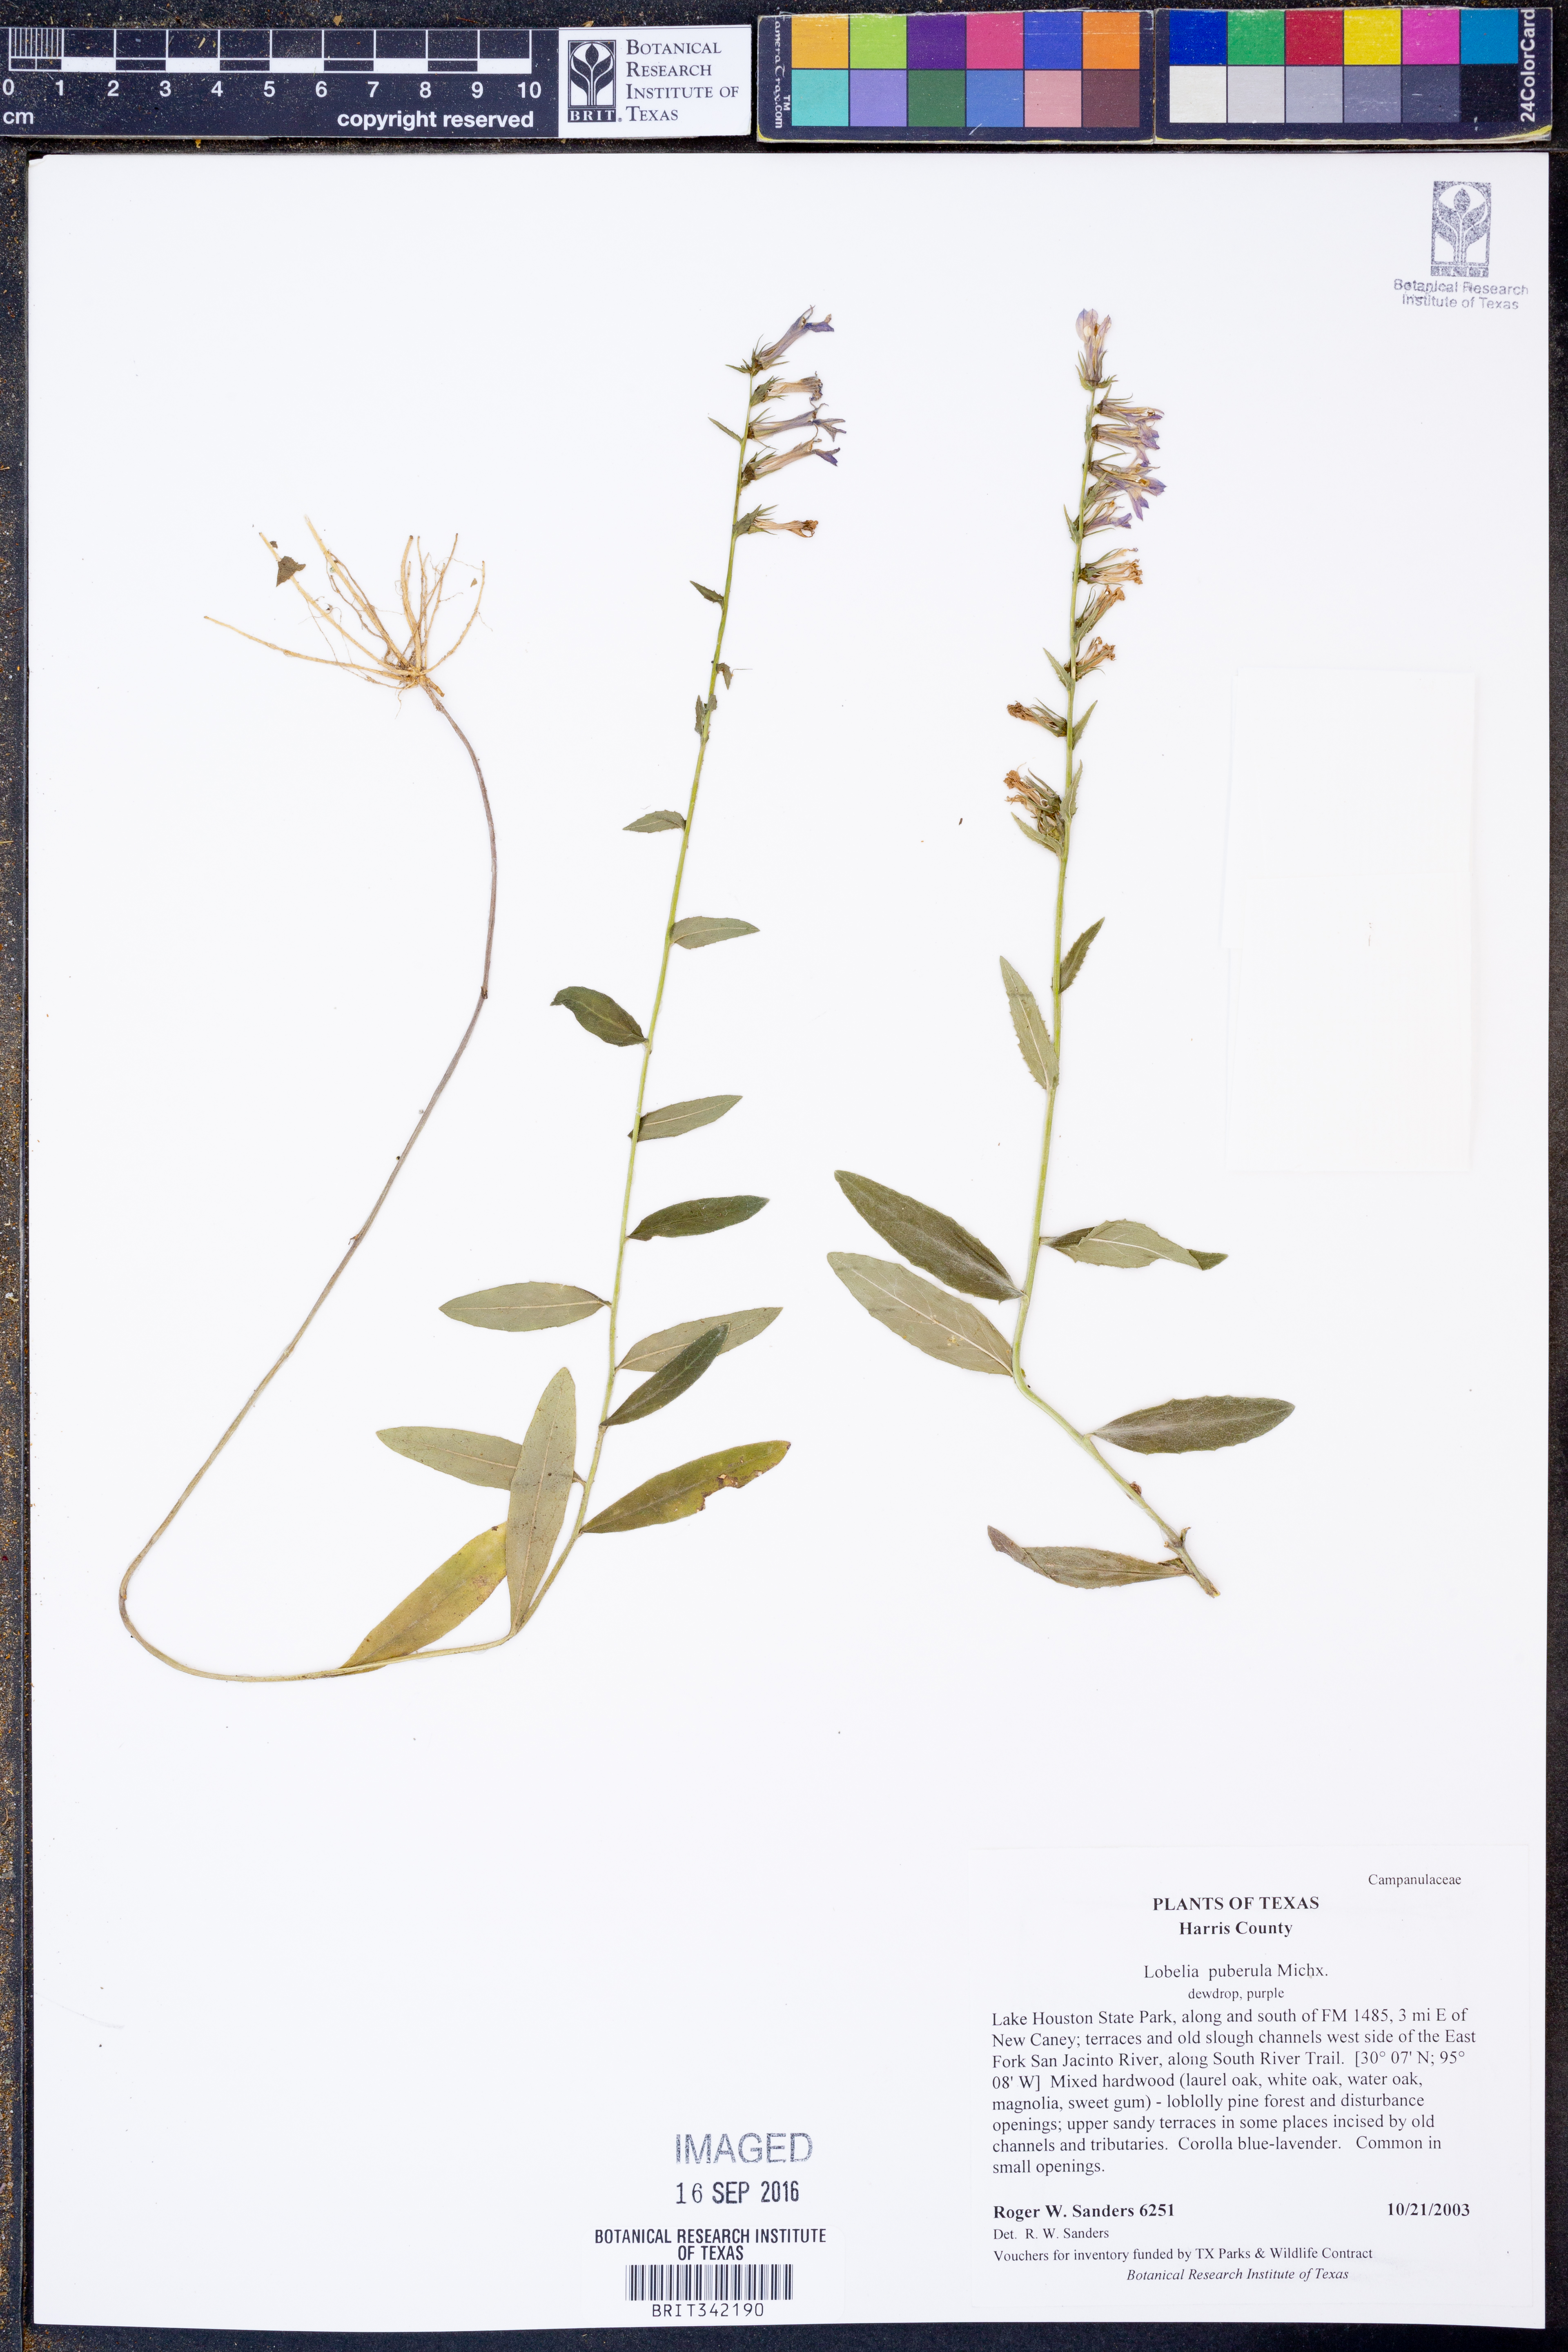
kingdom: Plantae
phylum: Tracheophyta
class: Magnoliopsida
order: Asterales
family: Campanulaceae
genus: Lobelia
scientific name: Lobelia puberula
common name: Purple dewdrop
